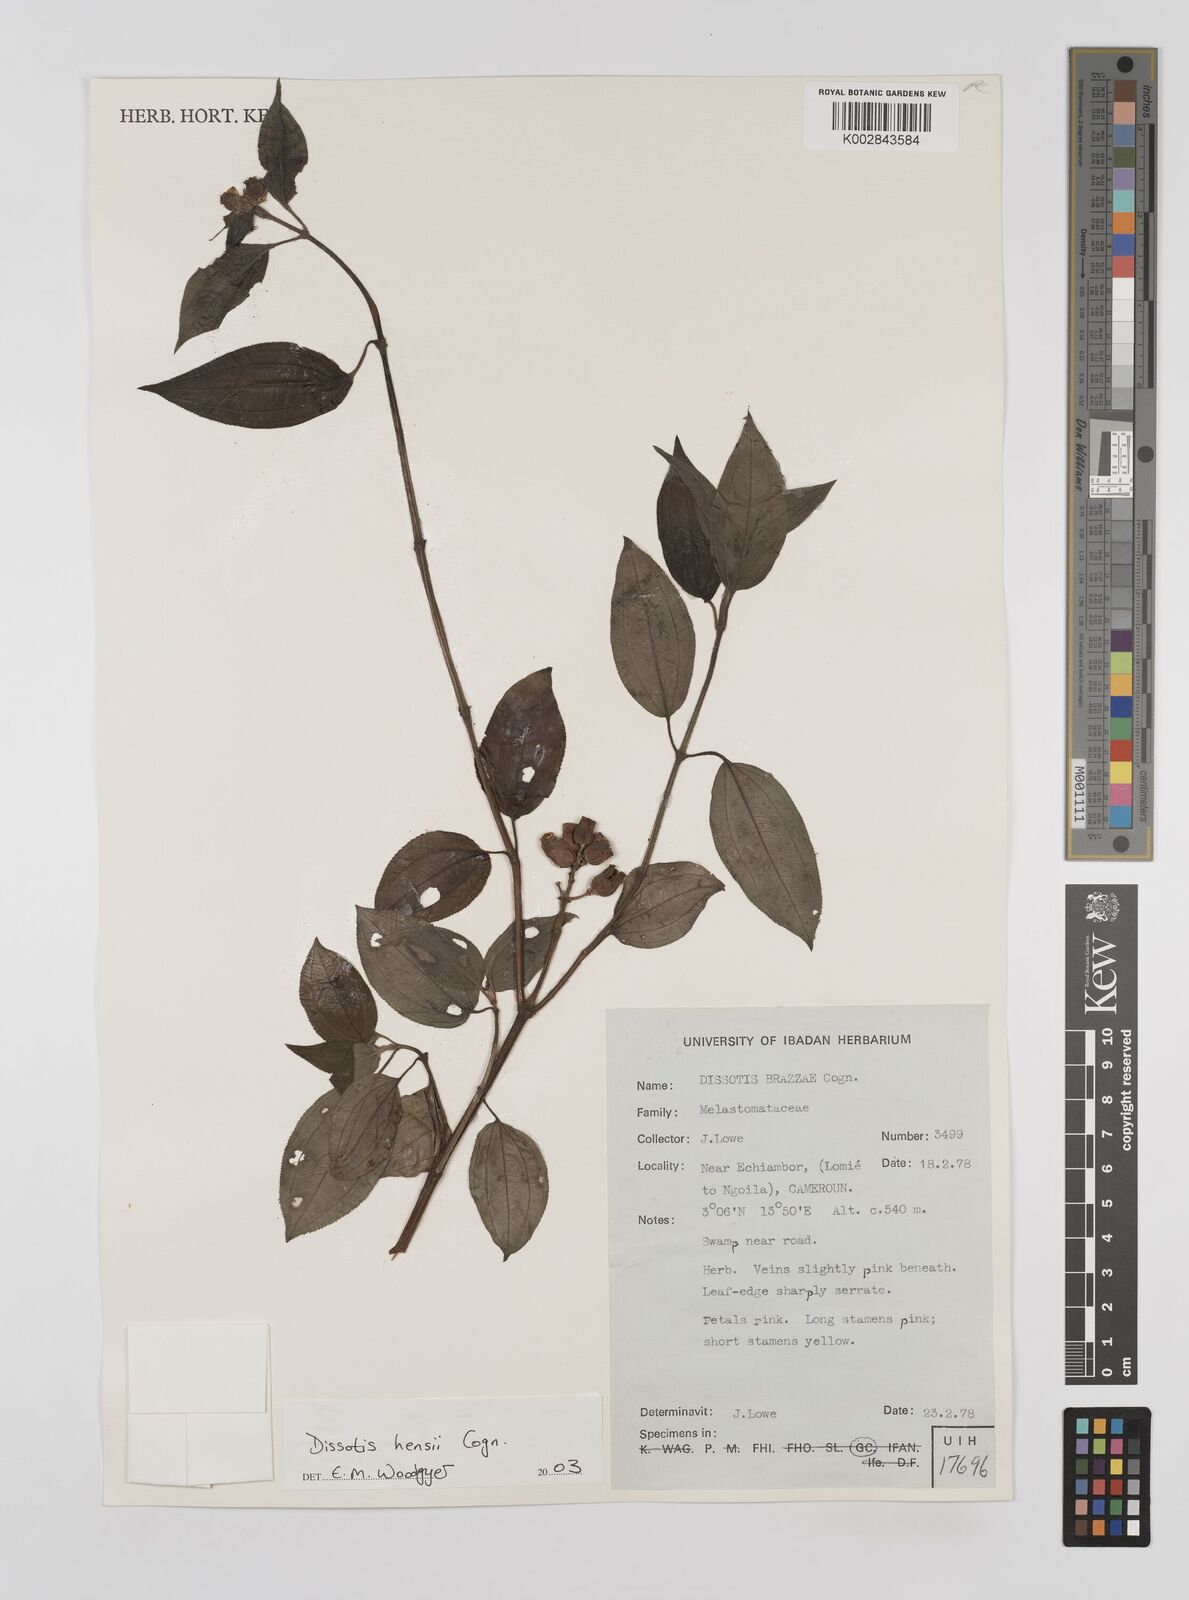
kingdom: Plantae
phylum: Tracheophyta
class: Magnoliopsida
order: Myrtales
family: Melastomataceae
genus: Dupineta
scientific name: Dupineta hensii
